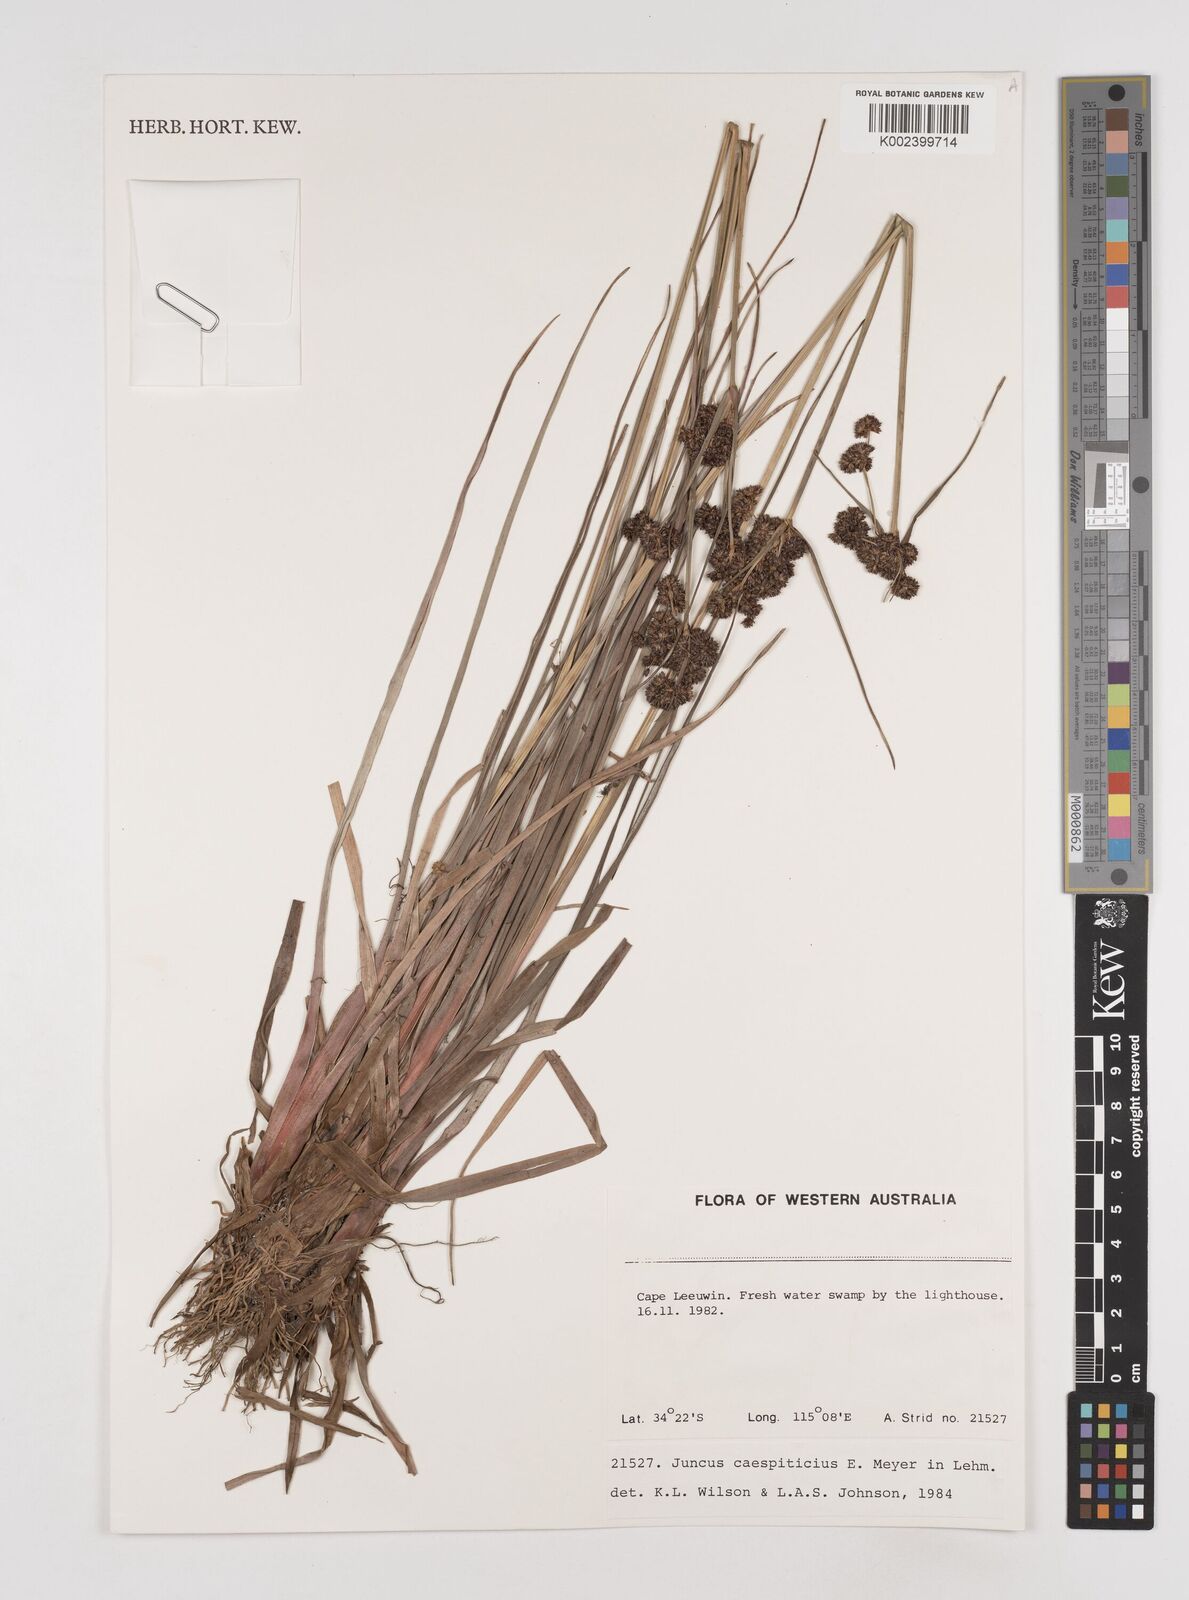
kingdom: Plantae
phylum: Tracheophyta
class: Liliopsida
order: Poales
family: Juncaceae
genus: Juncus
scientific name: Juncus caespiticius
